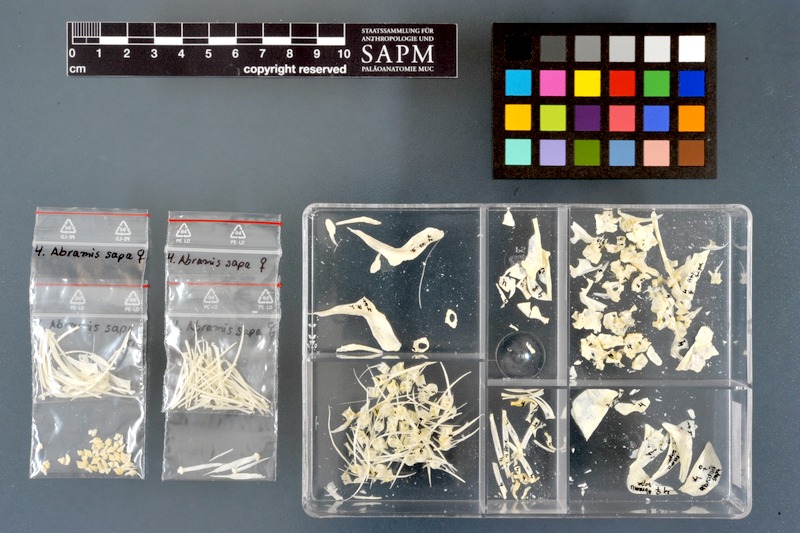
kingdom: Animalia
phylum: Chordata
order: Cypriniformes
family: Cyprinidae
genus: Ballerus
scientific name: Ballerus sapa
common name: White-eye bream
